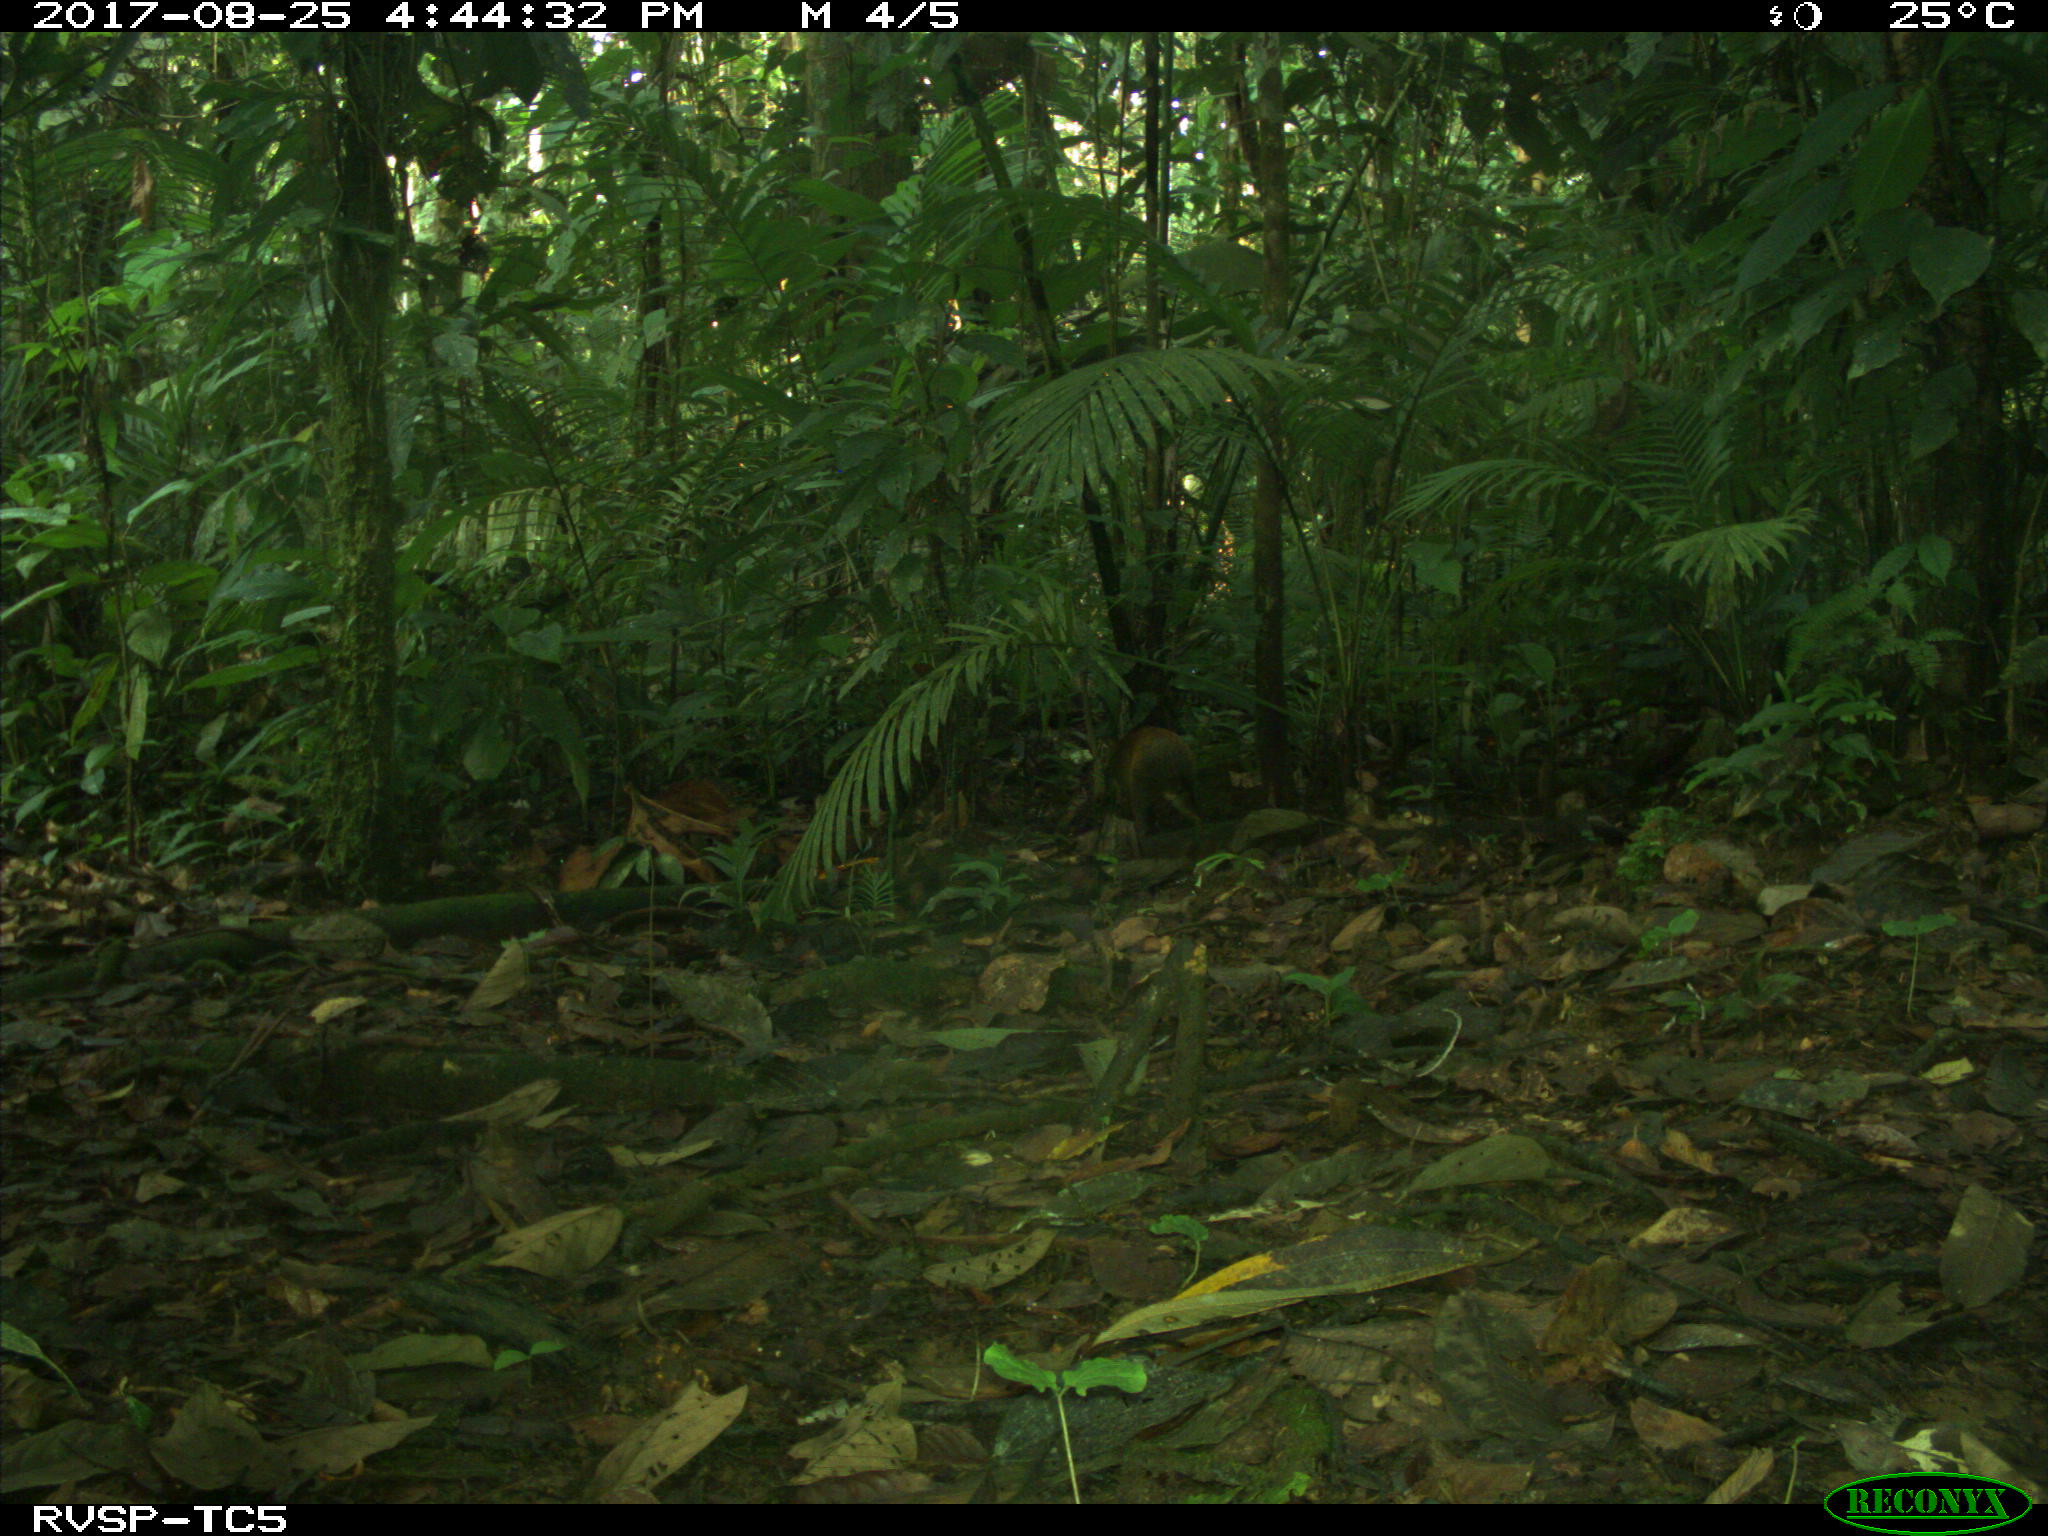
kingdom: Animalia
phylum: Chordata
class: Mammalia
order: Rodentia
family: Dasyproctidae
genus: Dasyprocta
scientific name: Dasyprocta punctata
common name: Central american agouti
